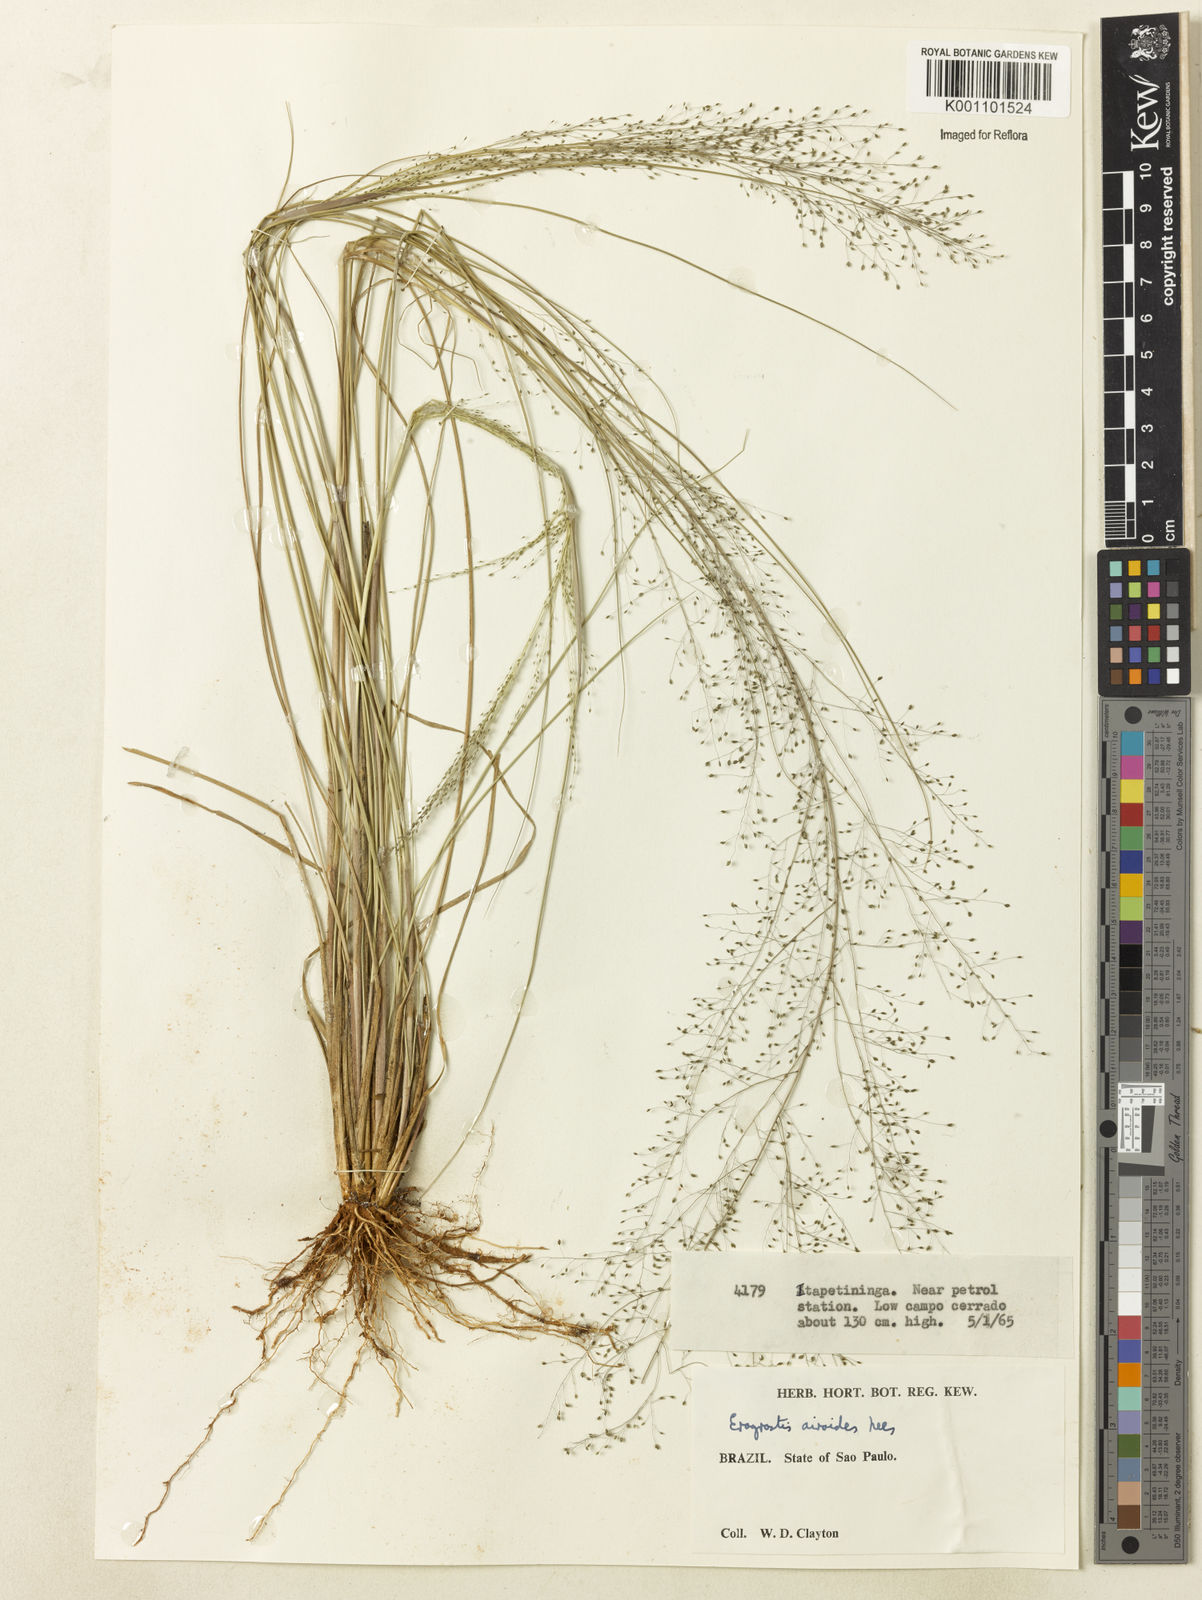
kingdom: Plantae
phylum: Tracheophyta
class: Liliopsida
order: Poales
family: Poaceae
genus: Eragrostis
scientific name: Eragrostis airoides
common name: Darnel lovegrass
